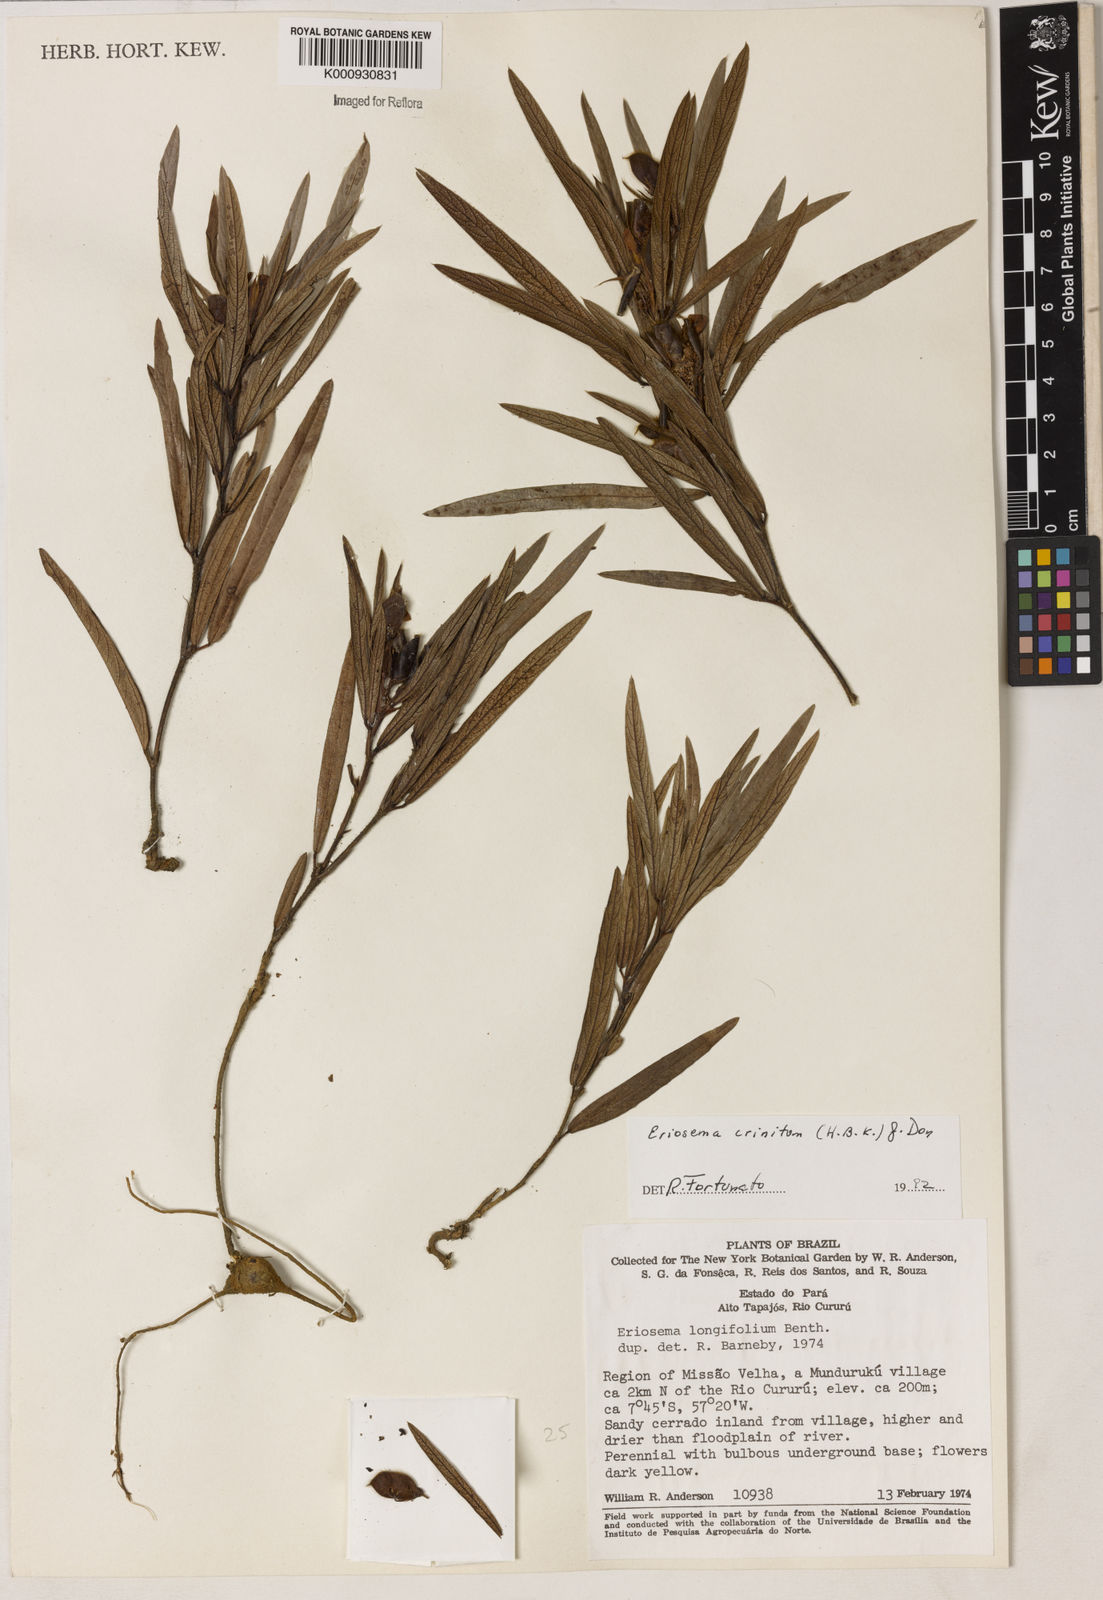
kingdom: Plantae
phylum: Tracheophyta
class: Magnoliopsida
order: Fabales
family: Fabaceae
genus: Eriosema
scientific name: Eriosema crinitum
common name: Sand pea
